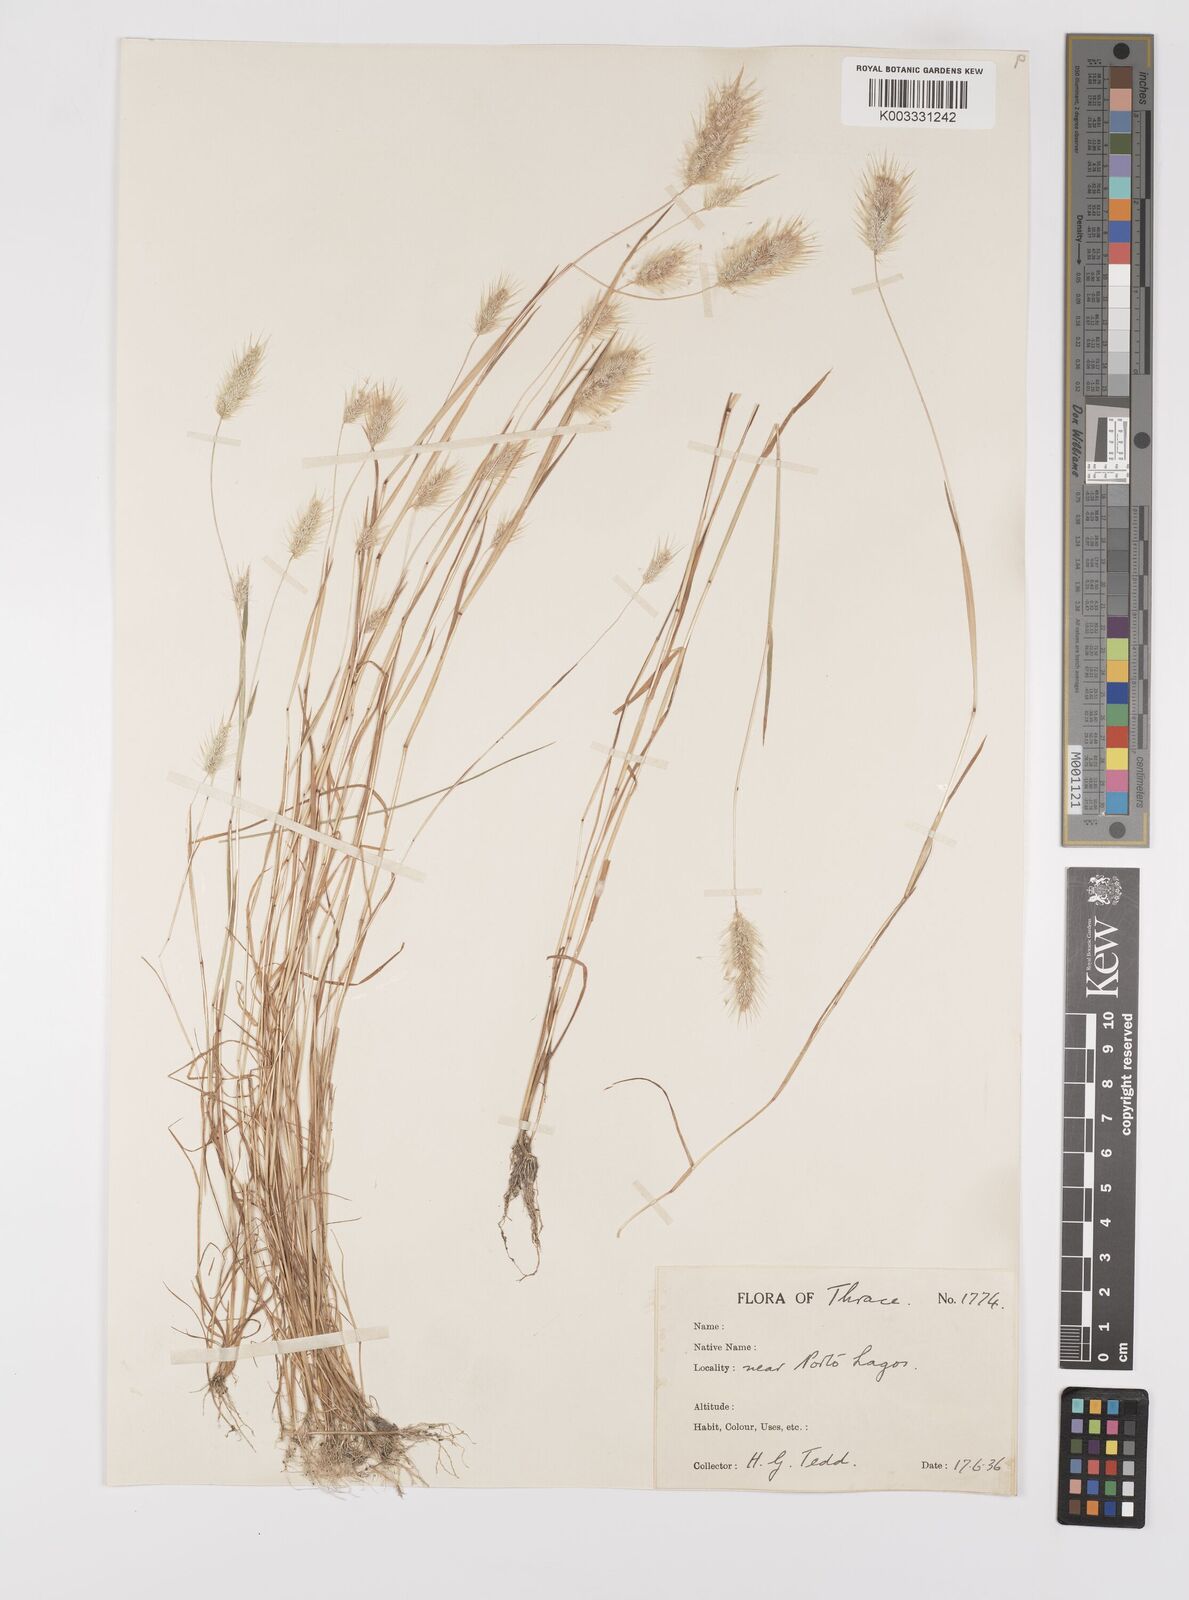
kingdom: Plantae
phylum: Tracheophyta
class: Liliopsida
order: Poales
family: Poaceae
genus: Polypogon
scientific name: Polypogon maritimus
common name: Mediterranean rabbitsfoot grass
